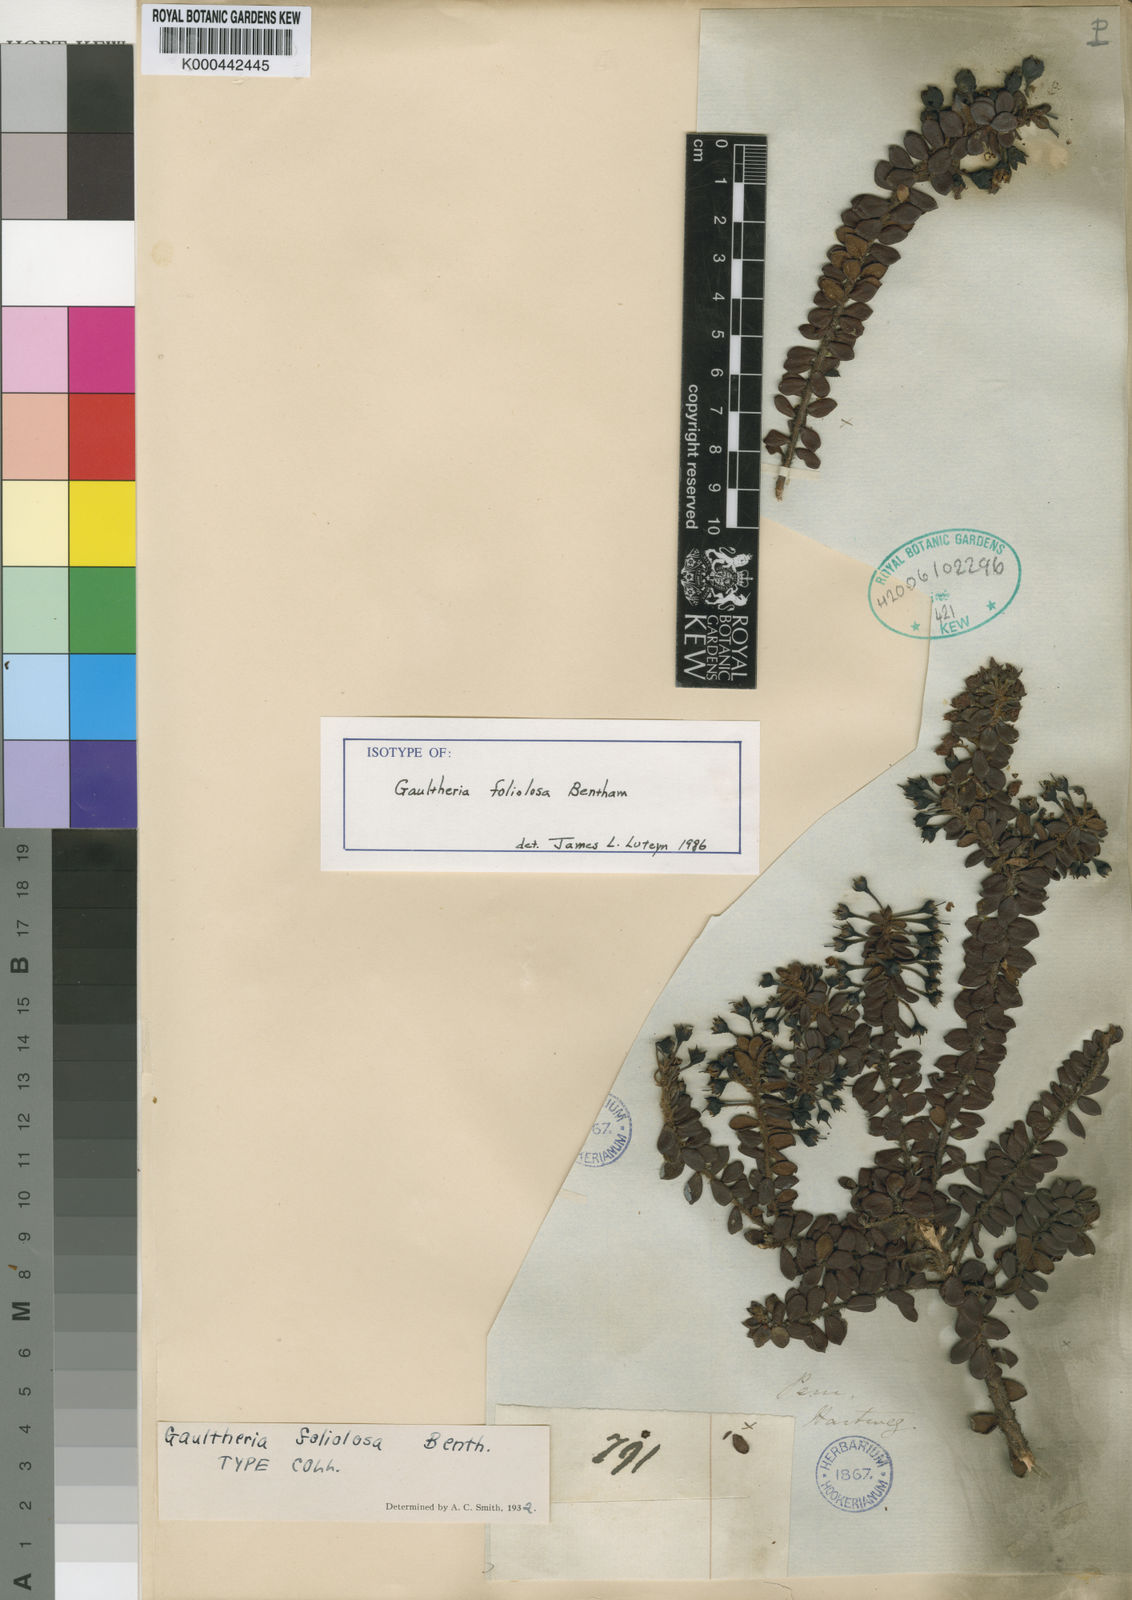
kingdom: Plantae
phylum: Tracheophyta
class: Magnoliopsida
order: Ericales
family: Ericaceae
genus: Gaultheria
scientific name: Gaultheria foliolosa
